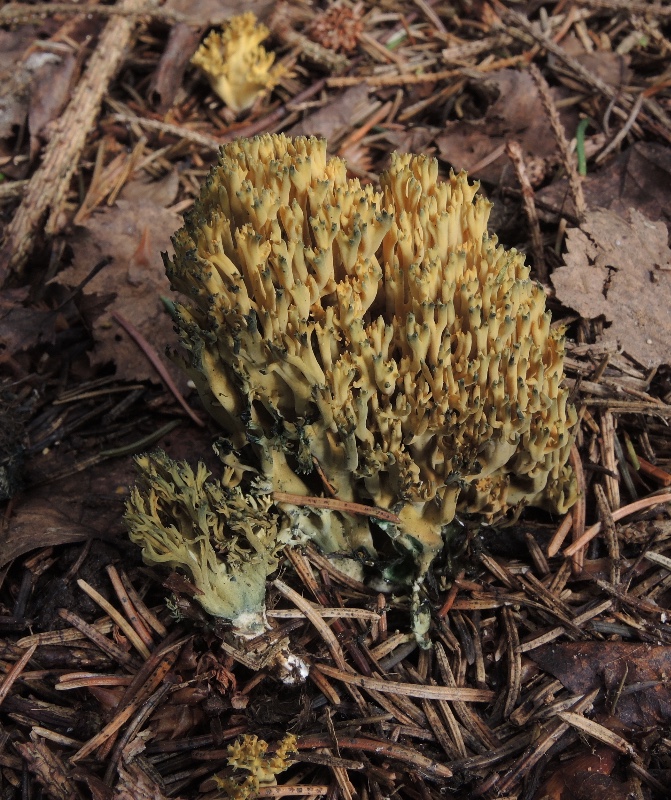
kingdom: Fungi
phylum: Basidiomycota
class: Agaricomycetes
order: Gomphales
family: Gomphaceae
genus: Phaeoclavulina
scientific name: Phaeoclavulina abietina
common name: gulgrøn koralsvamp
